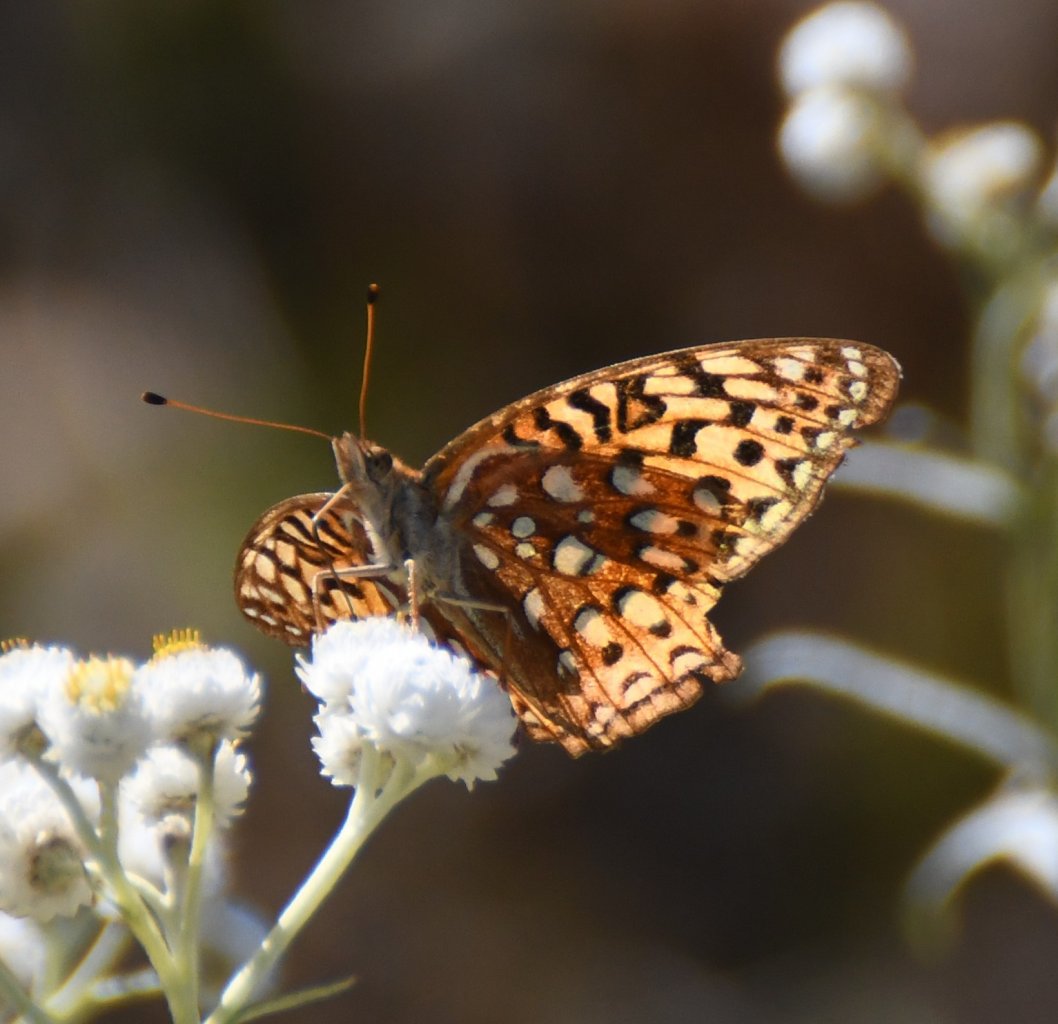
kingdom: Animalia
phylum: Arthropoda
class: Insecta
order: Lepidoptera
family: Nymphalidae
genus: Speyeria
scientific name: Speyeria atlantis
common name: Atlantis Fritillary
